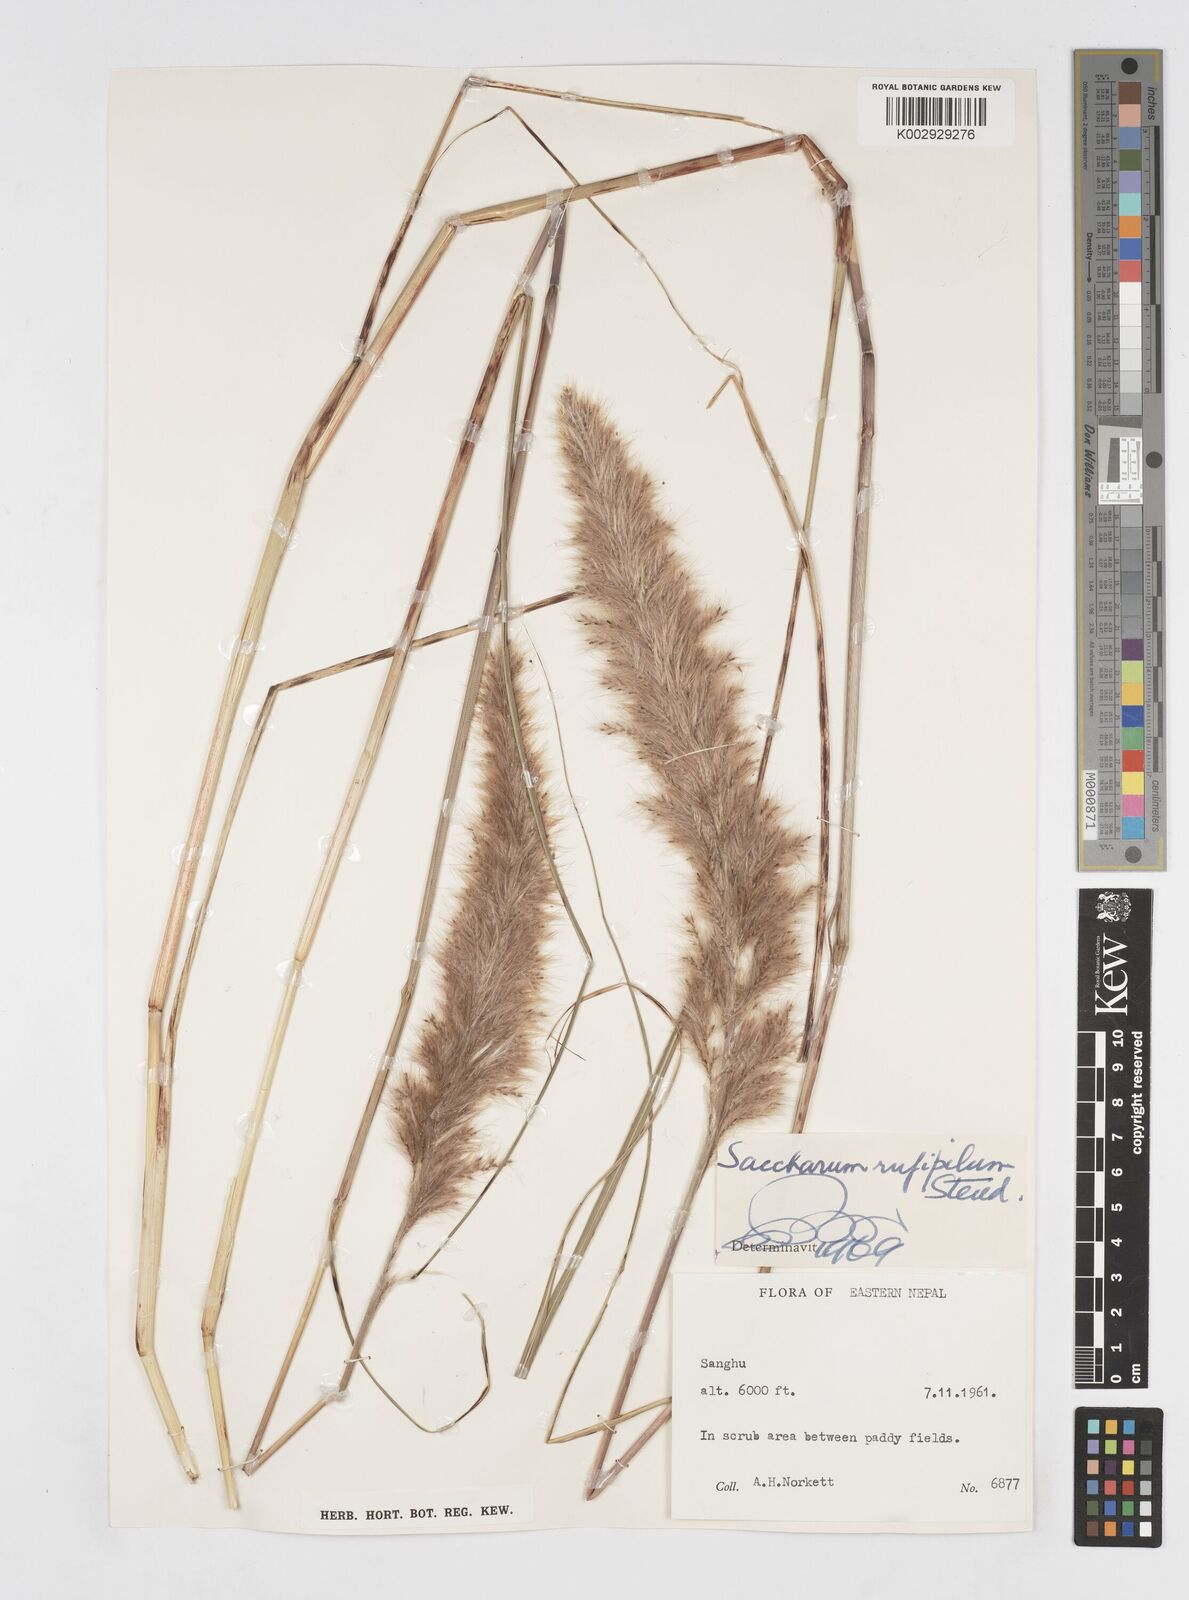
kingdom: Plantae
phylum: Tracheophyta
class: Liliopsida
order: Poales
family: Poaceae
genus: Tripidium
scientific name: Tripidium rufipilum
